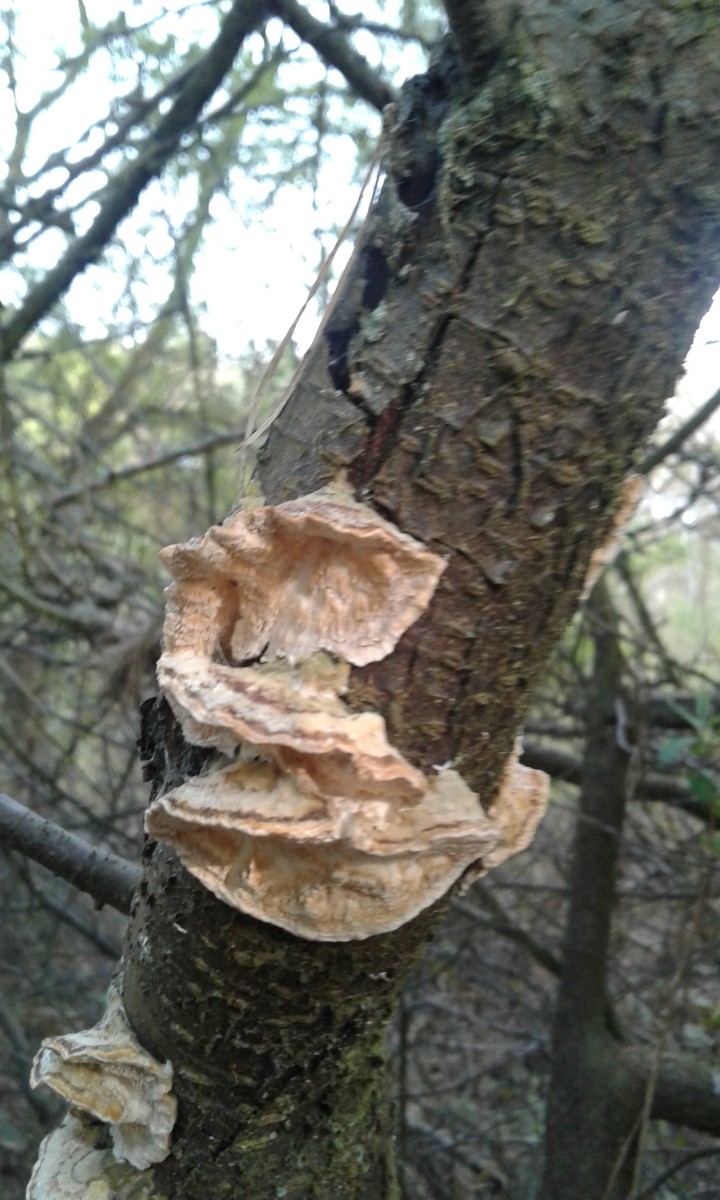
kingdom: Fungi
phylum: Basidiomycota
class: Agaricomycetes
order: Polyporales
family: Polyporaceae
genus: Trametes
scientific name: Trametes ochracea
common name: bæltet læderporesvamp
